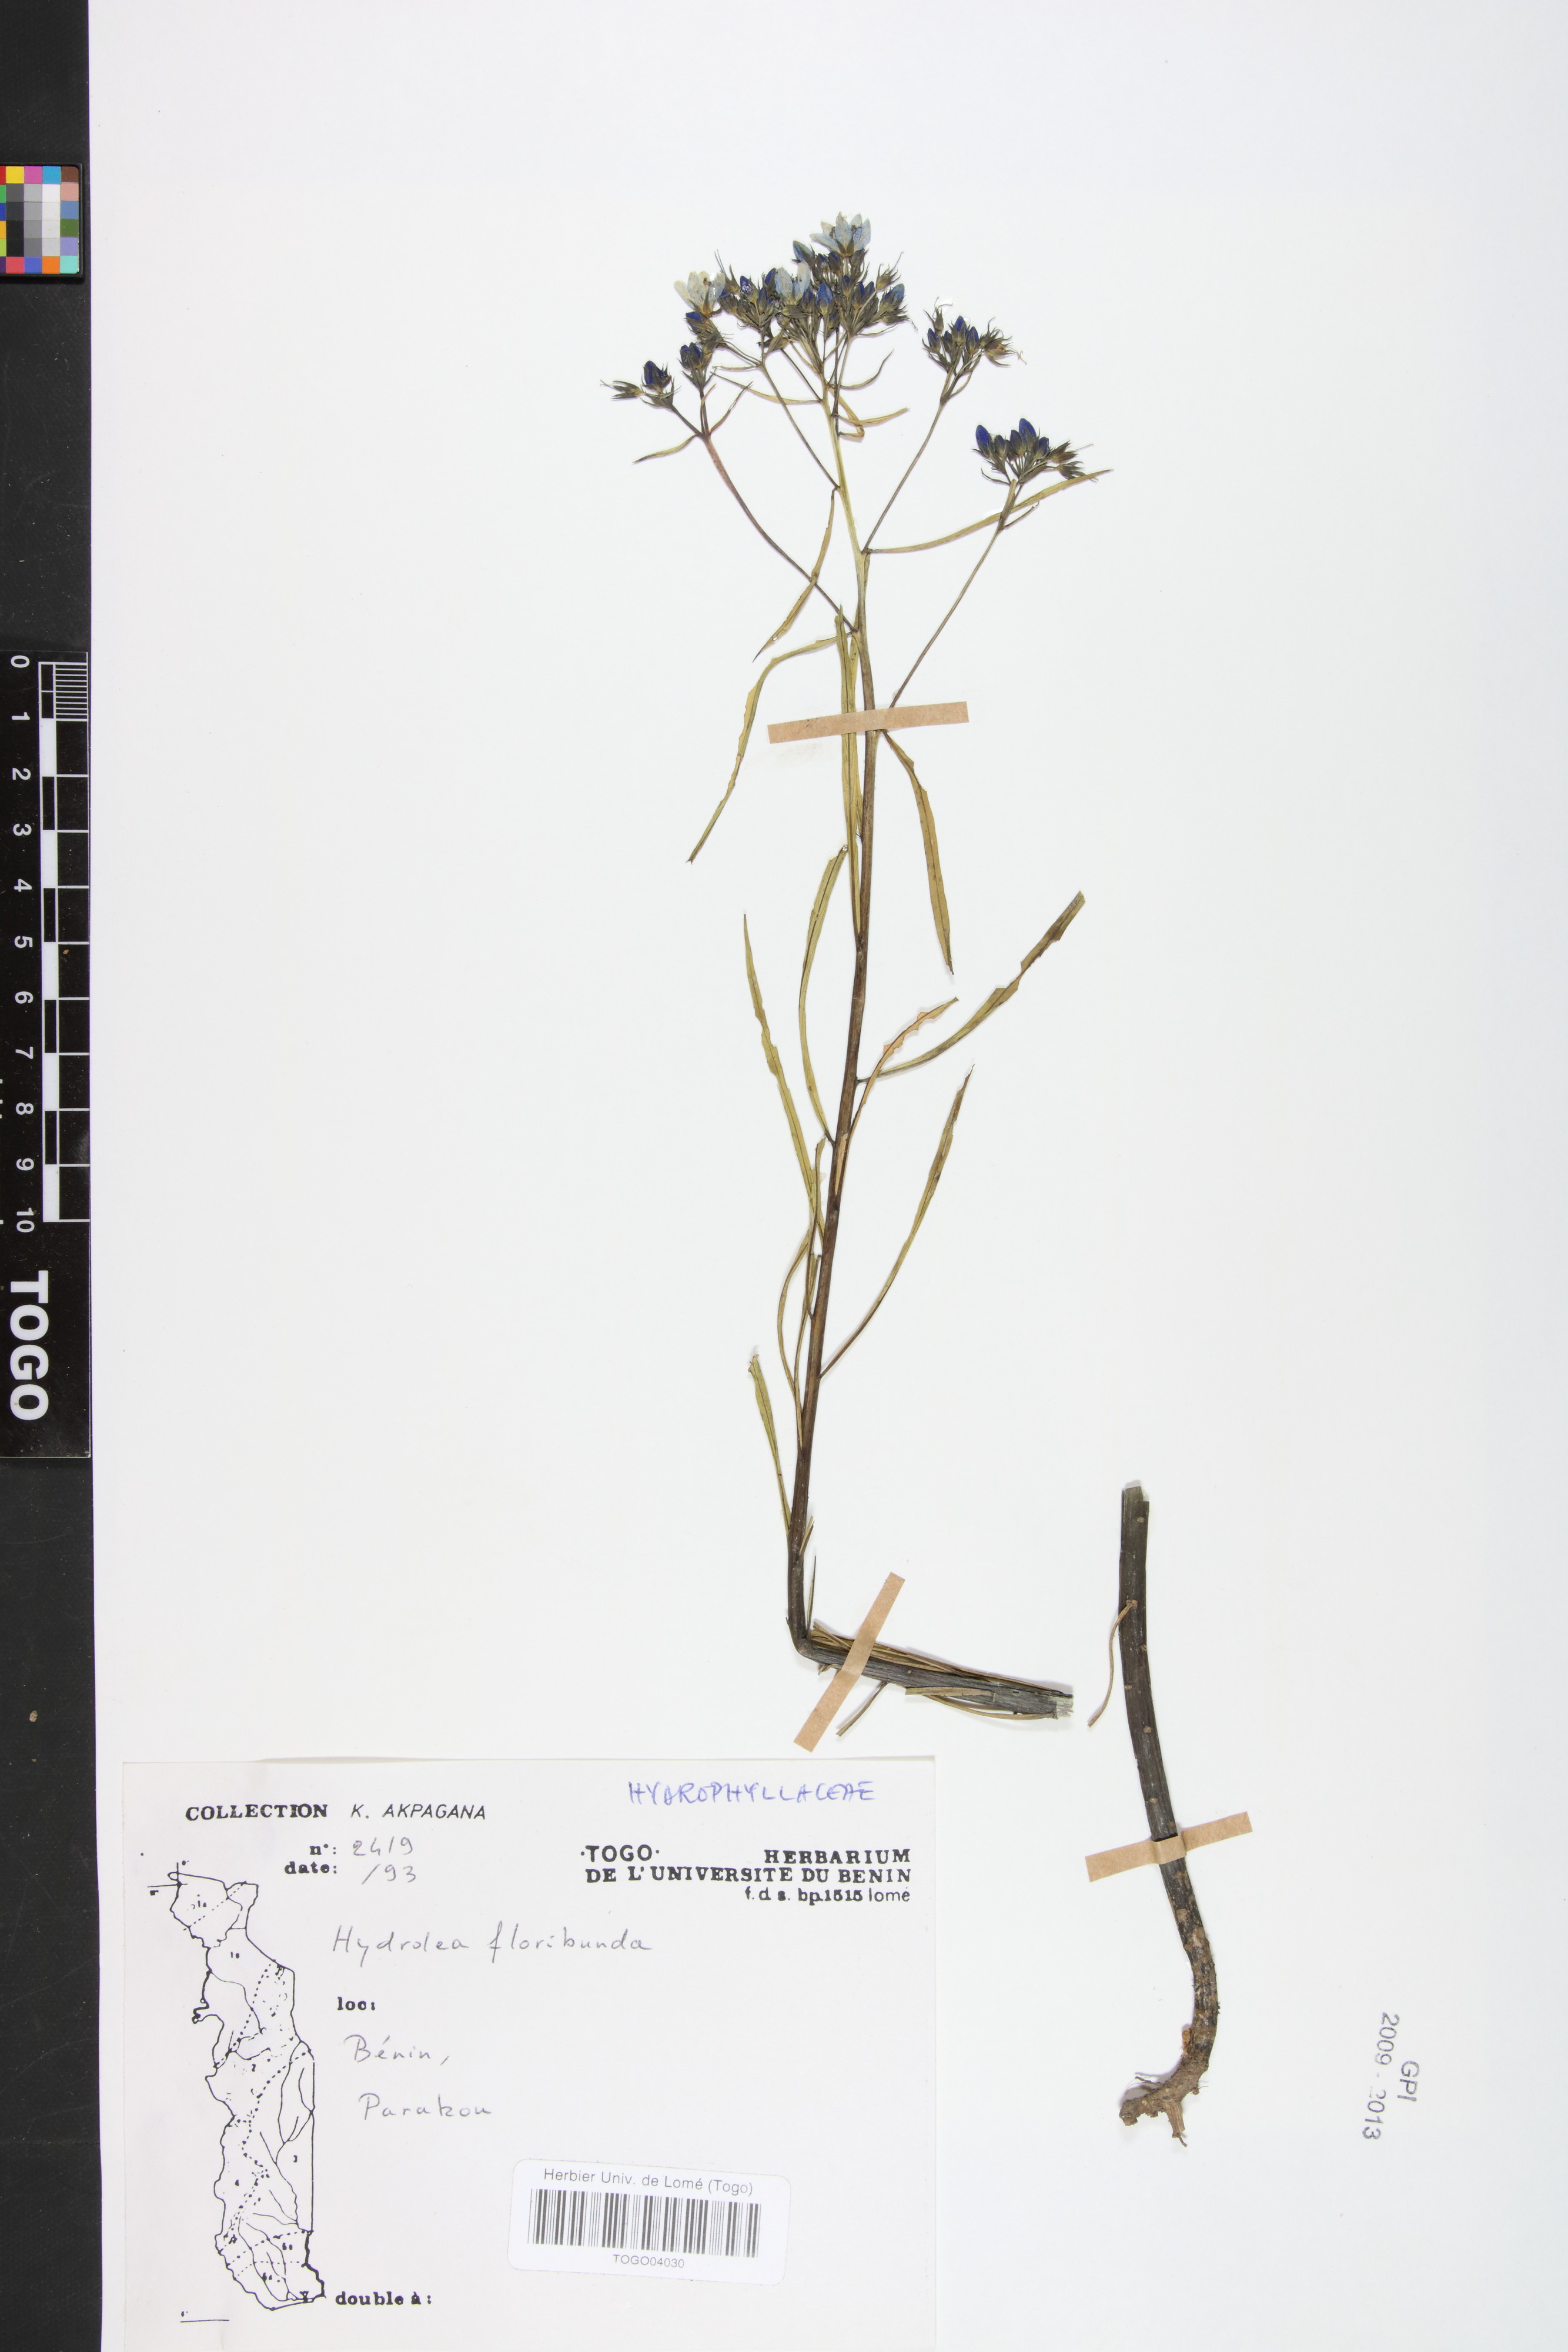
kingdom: Plantae
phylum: Tracheophyta
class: Magnoliopsida
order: Solanales
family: Hydroleaceae
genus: Hydrolea
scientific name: Hydrolea floribunda
